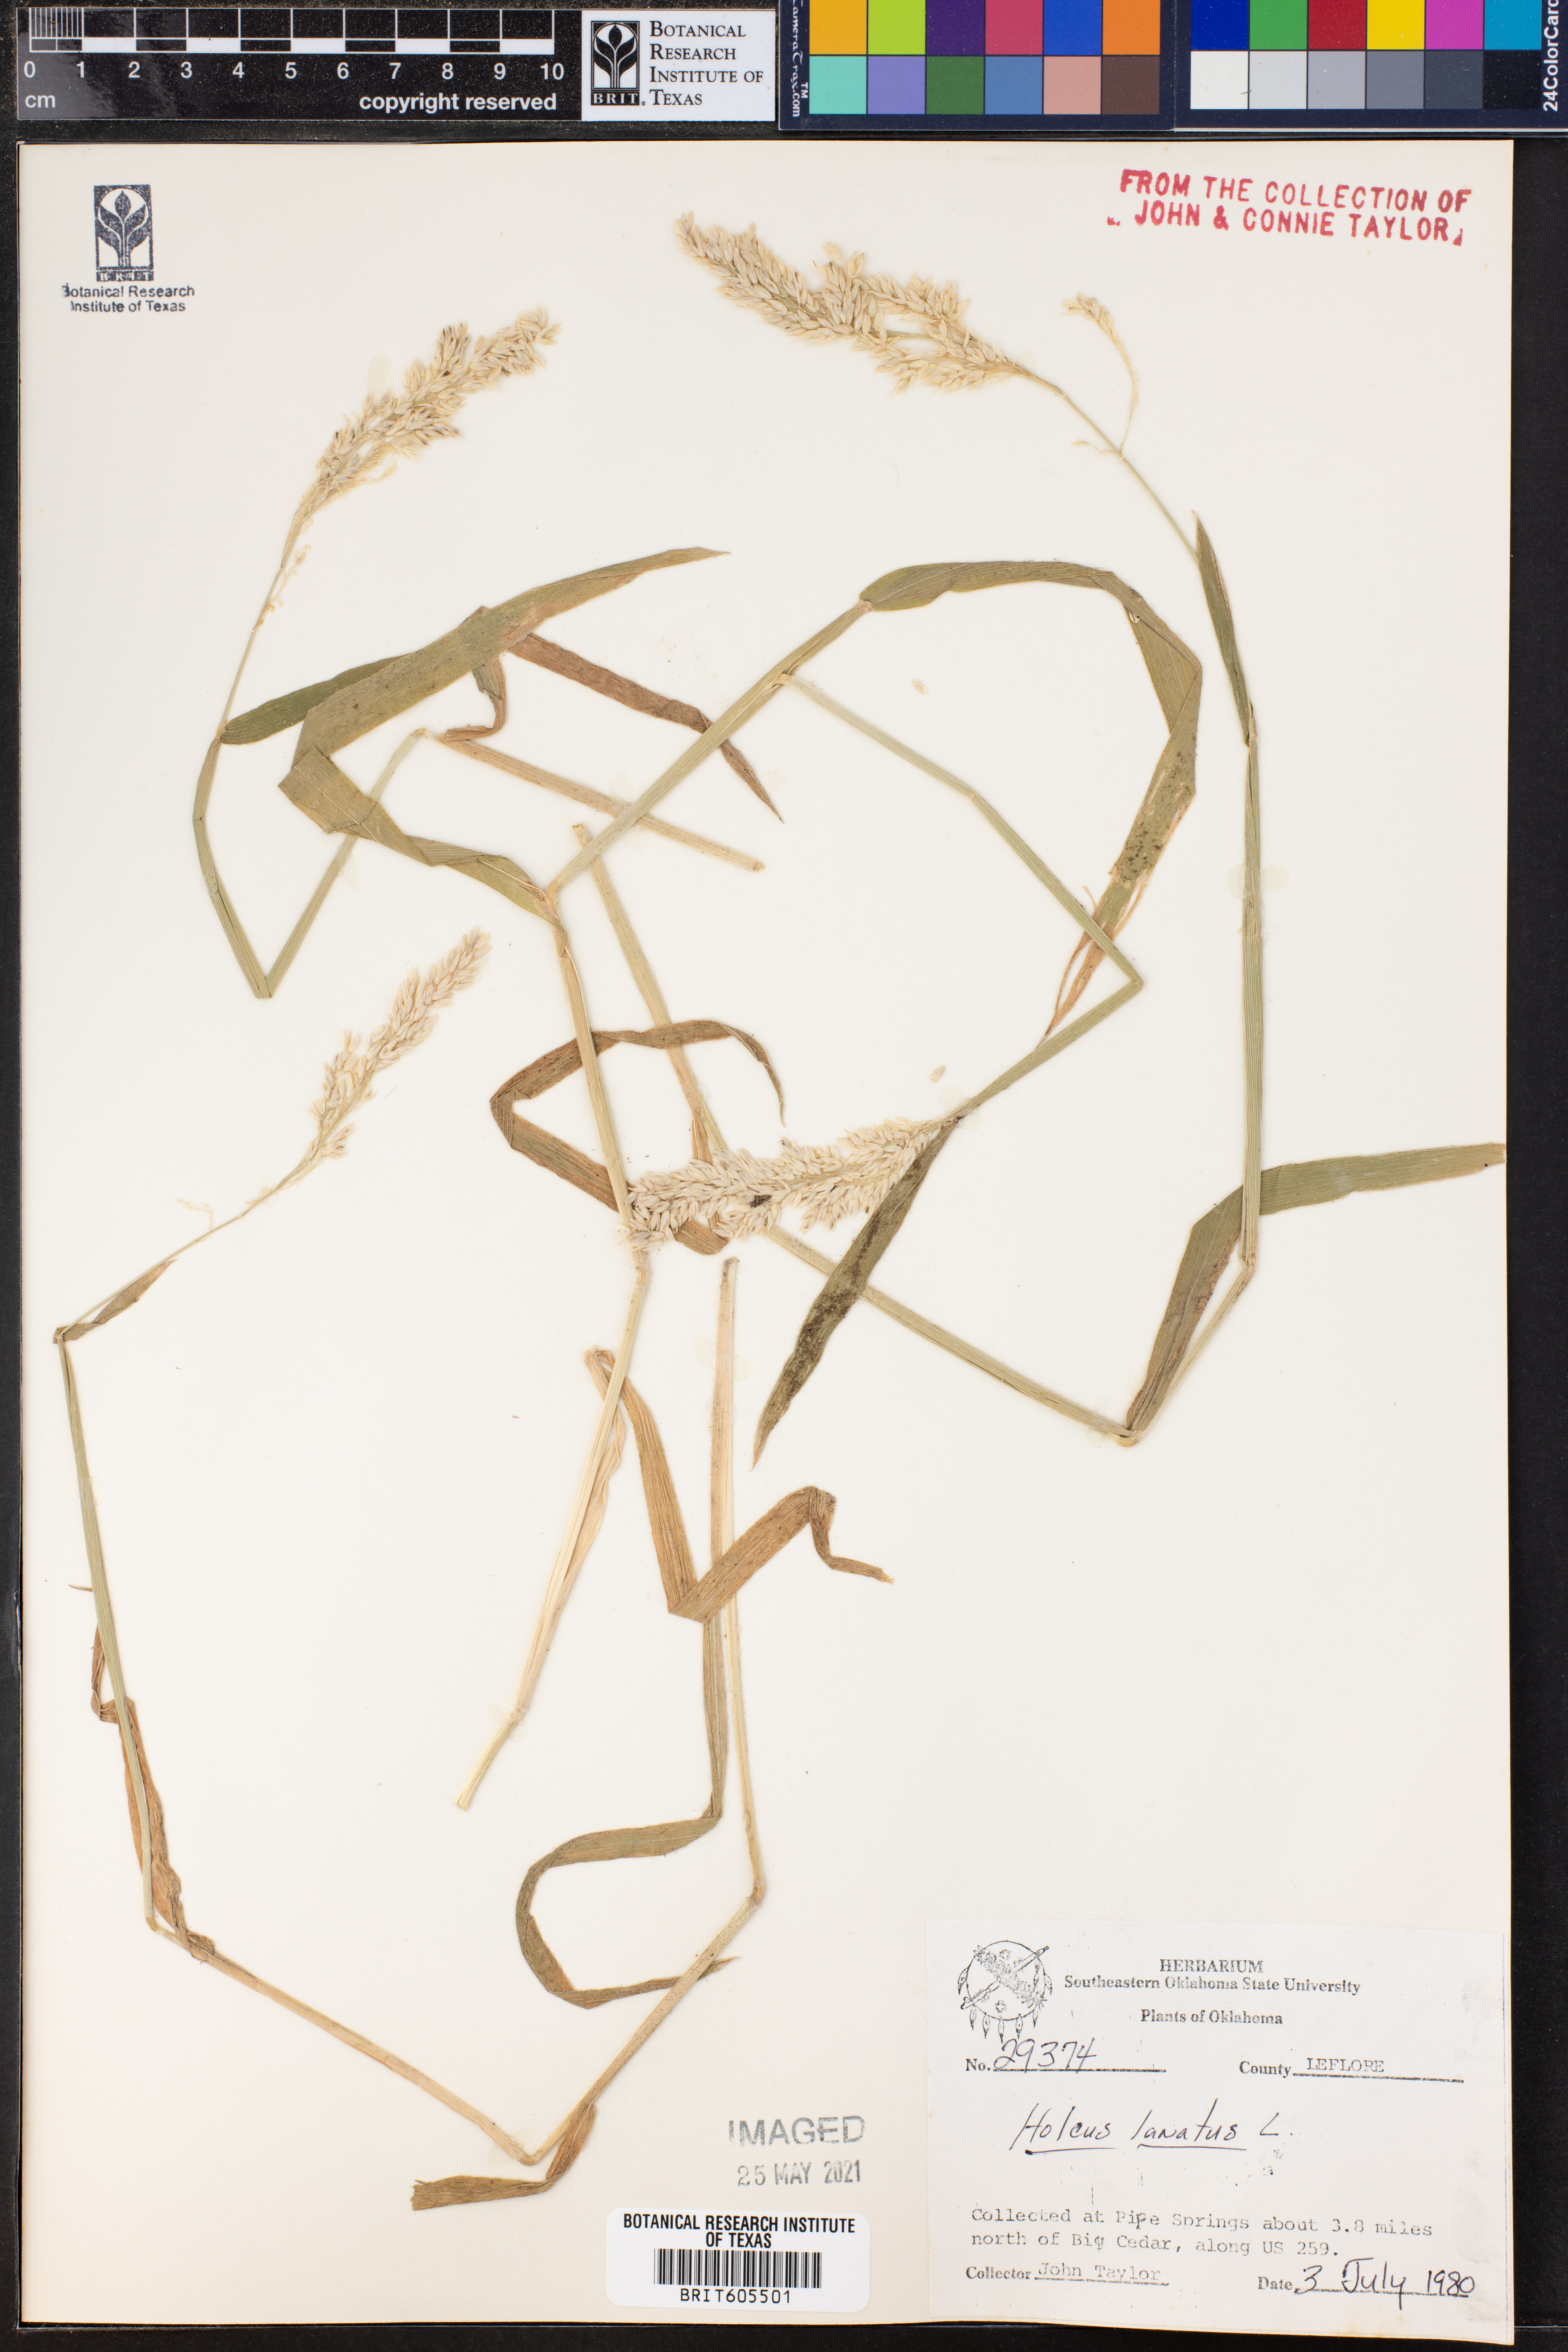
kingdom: Plantae
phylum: Tracheophyta
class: Liliopsida
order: Poales
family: Poaceae
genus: Holcus
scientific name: Holcus lanatus
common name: Yorkshire-fog
